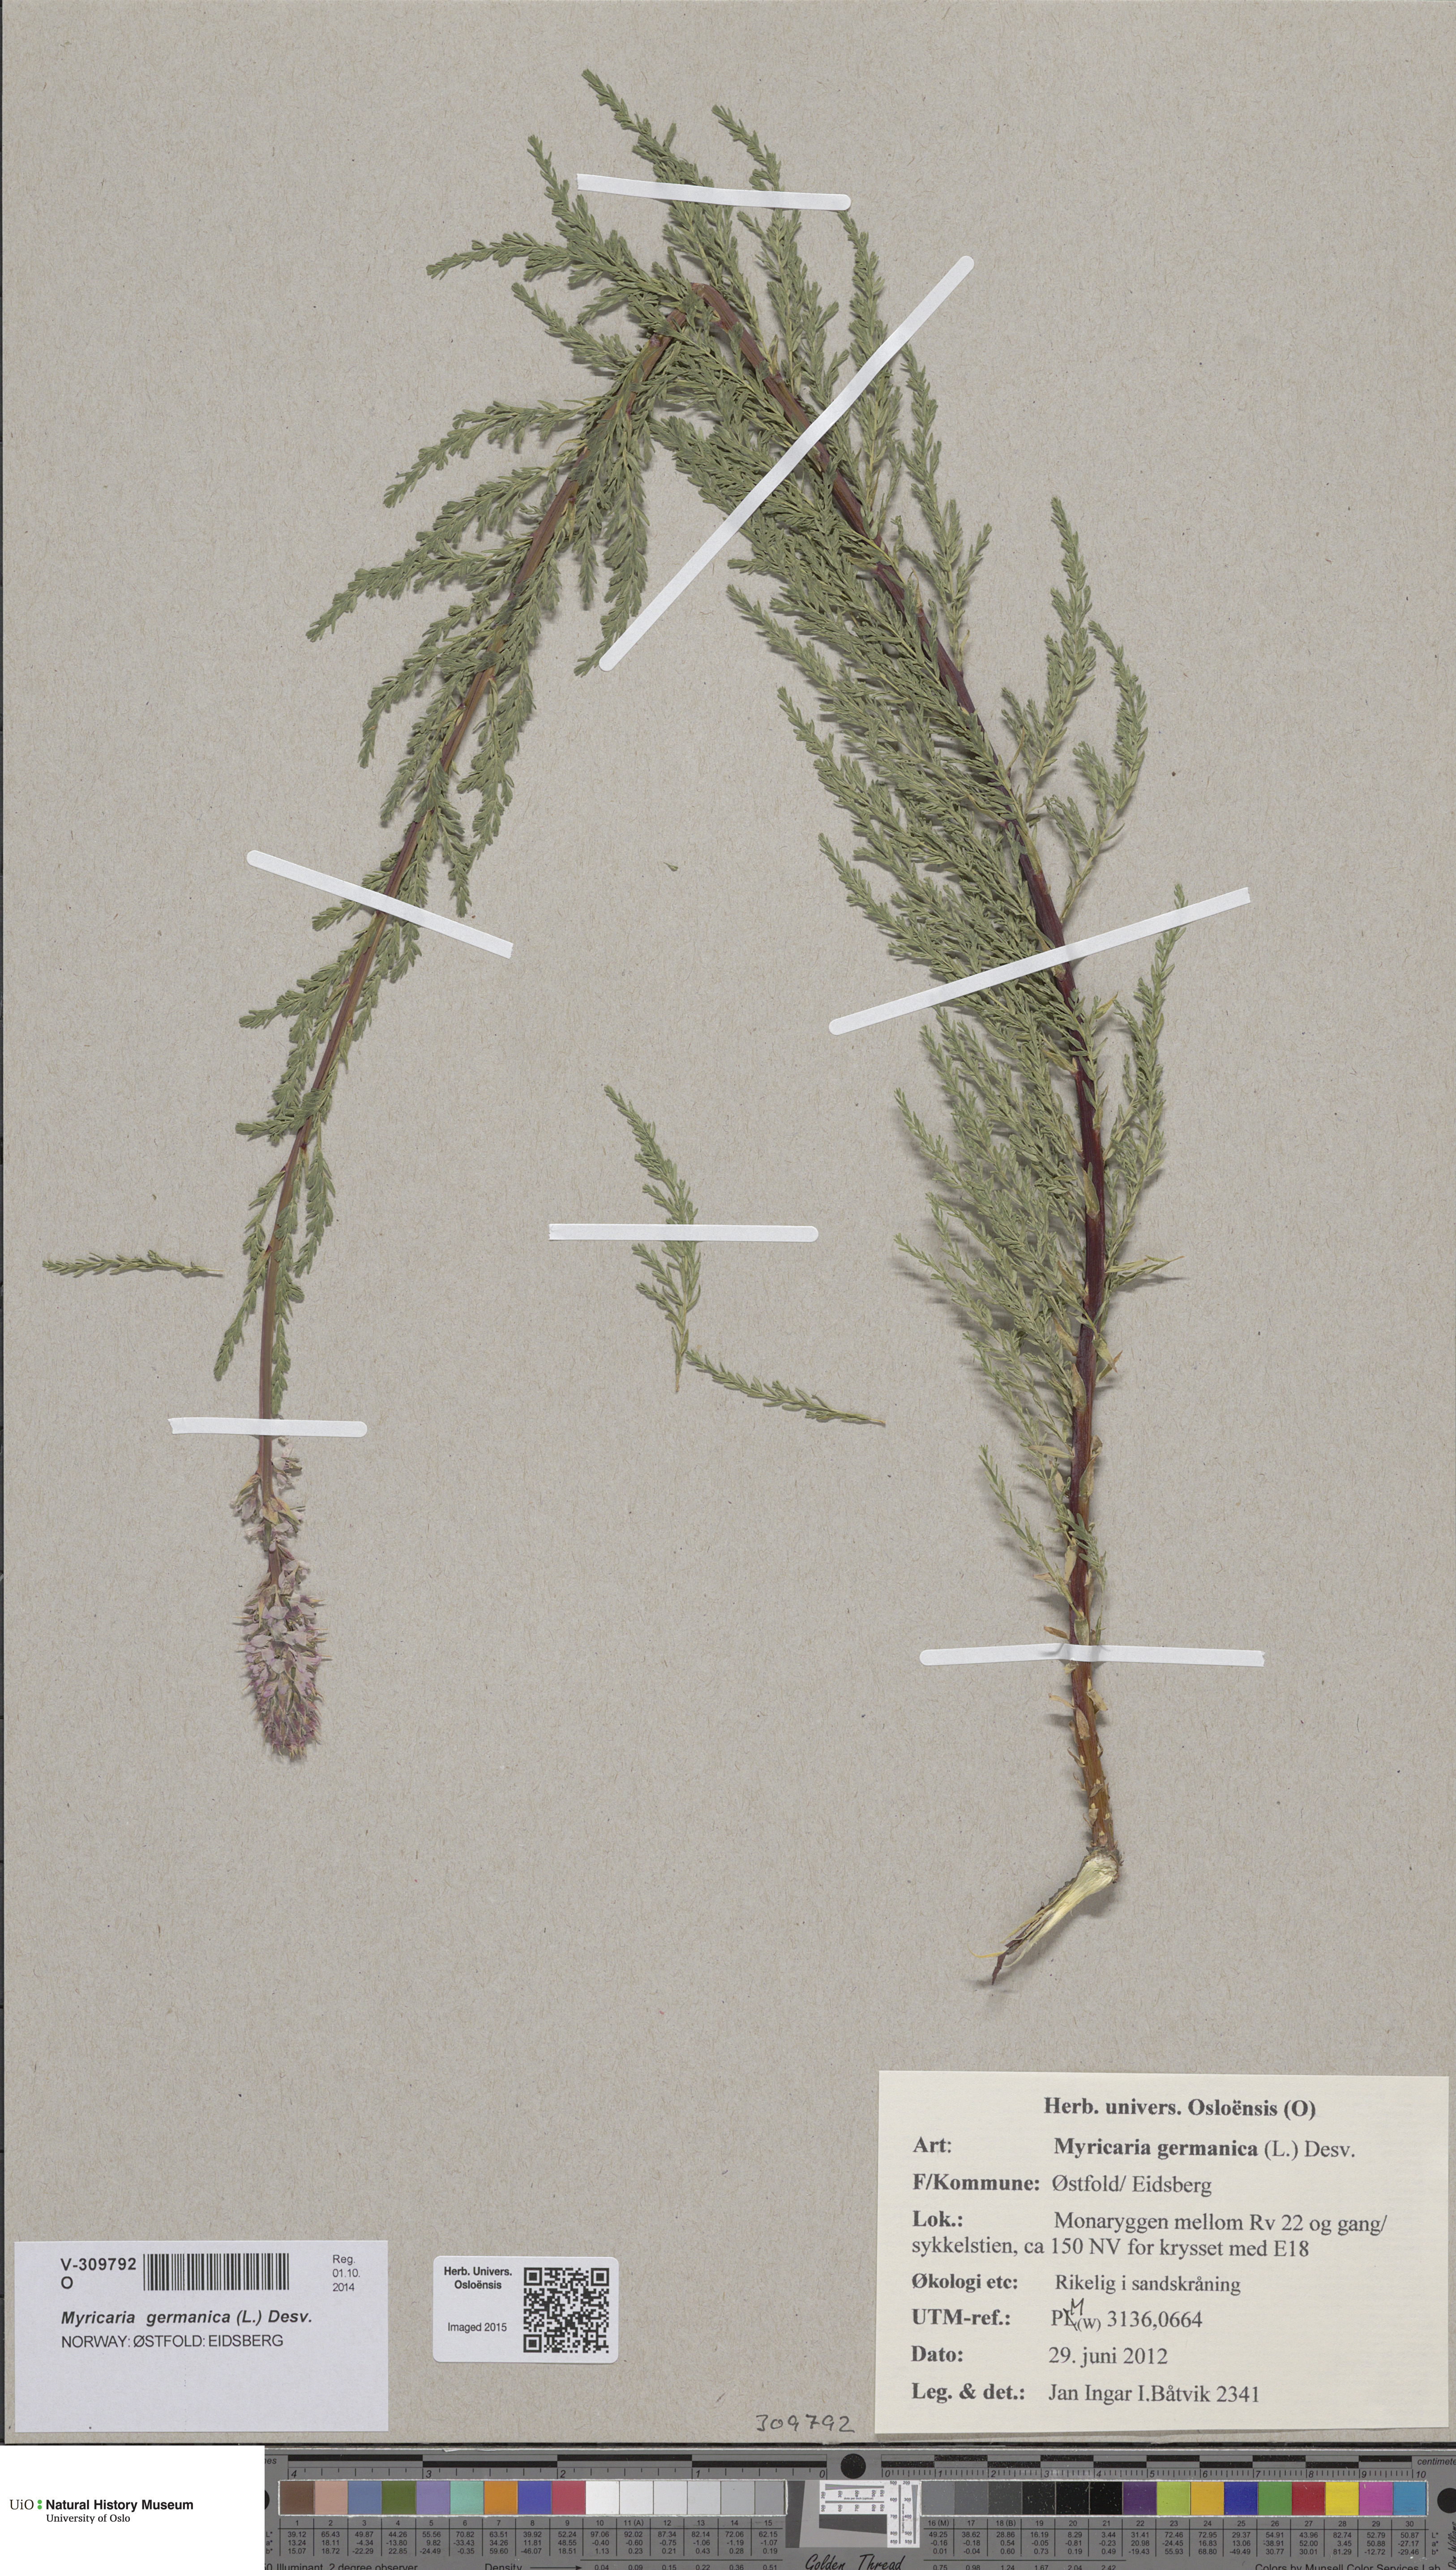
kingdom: Plantae
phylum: Tracheophyta
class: Magnoliopsida
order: Caryophyllales
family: Tamaricaceae
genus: Myricaria
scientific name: Myricaria germanica
